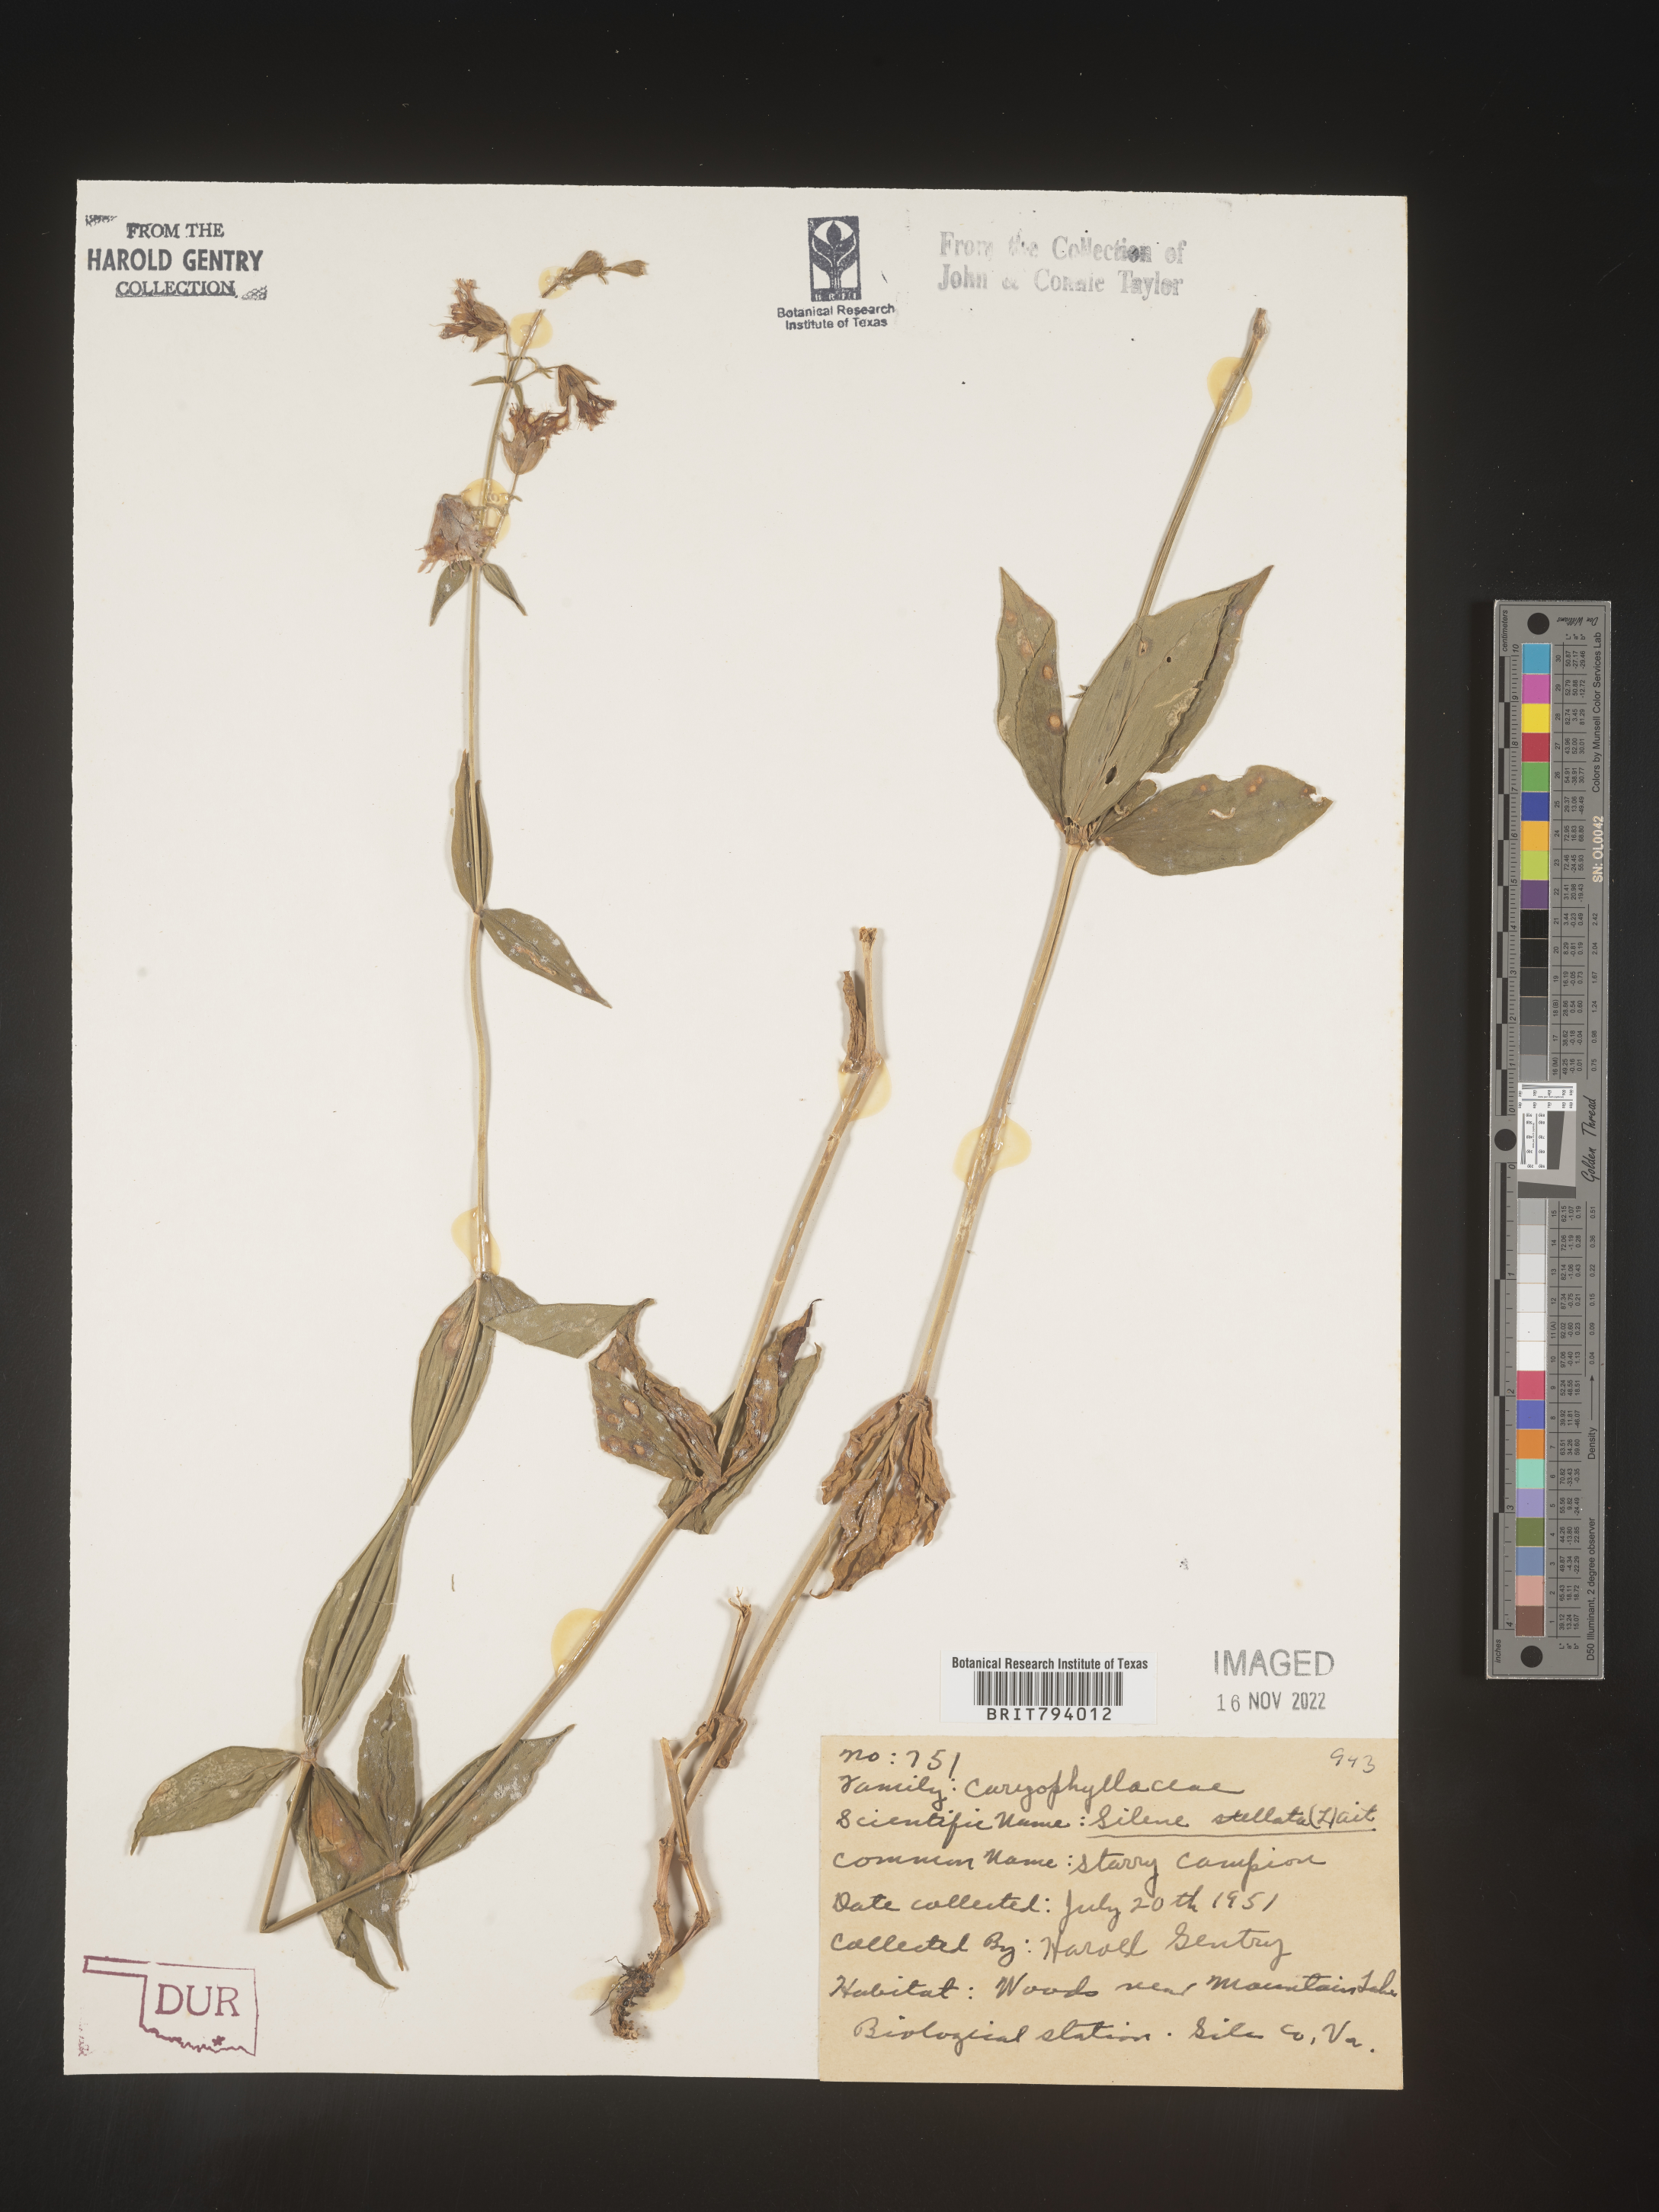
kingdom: Plantae
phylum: Tracheophyta
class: Magnoliopsida
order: Caryophyllales
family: Caryophyllaceae
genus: Silene
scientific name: Silene stellata
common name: Starry campion
